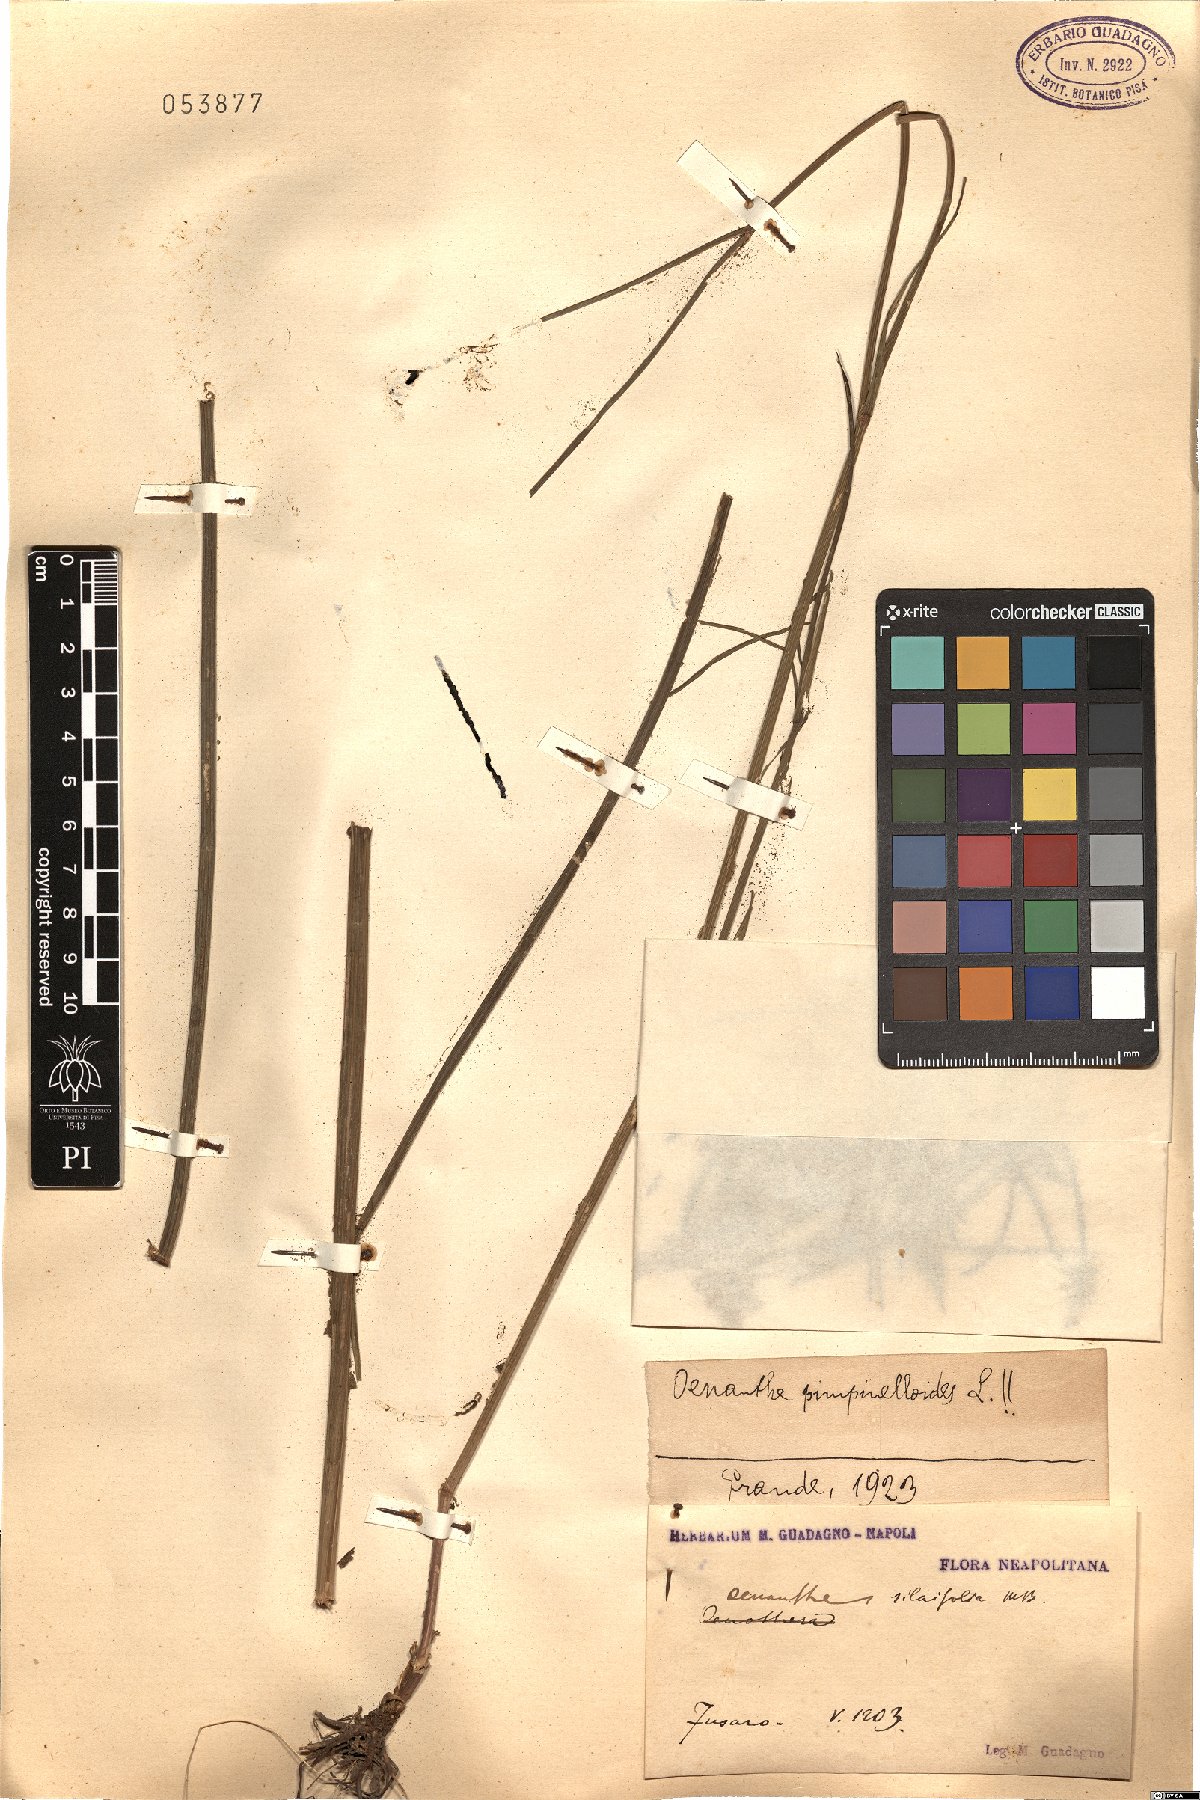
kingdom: Plantae
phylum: Tracheophyta
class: Magnoliopsida
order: Apiales
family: Apiaceae
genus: Oenanthe
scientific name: Oenanthe pimpinelloides
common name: Corky-fruited water-dropwort
